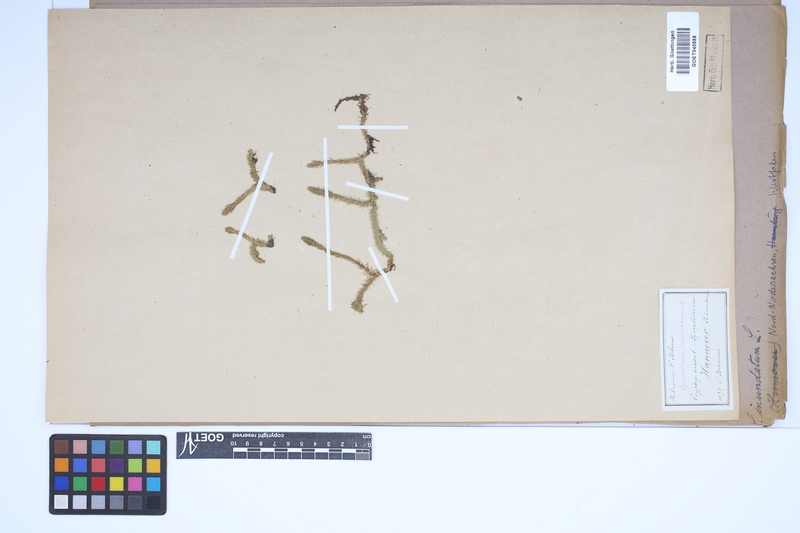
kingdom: Plantae
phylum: Tracheophyta
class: Lycopodiopsida
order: Lycopodiales
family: Lycopodiaceae
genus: Lycopodiella
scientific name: Lycopodiella inundata
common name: Marsh clubmoss
